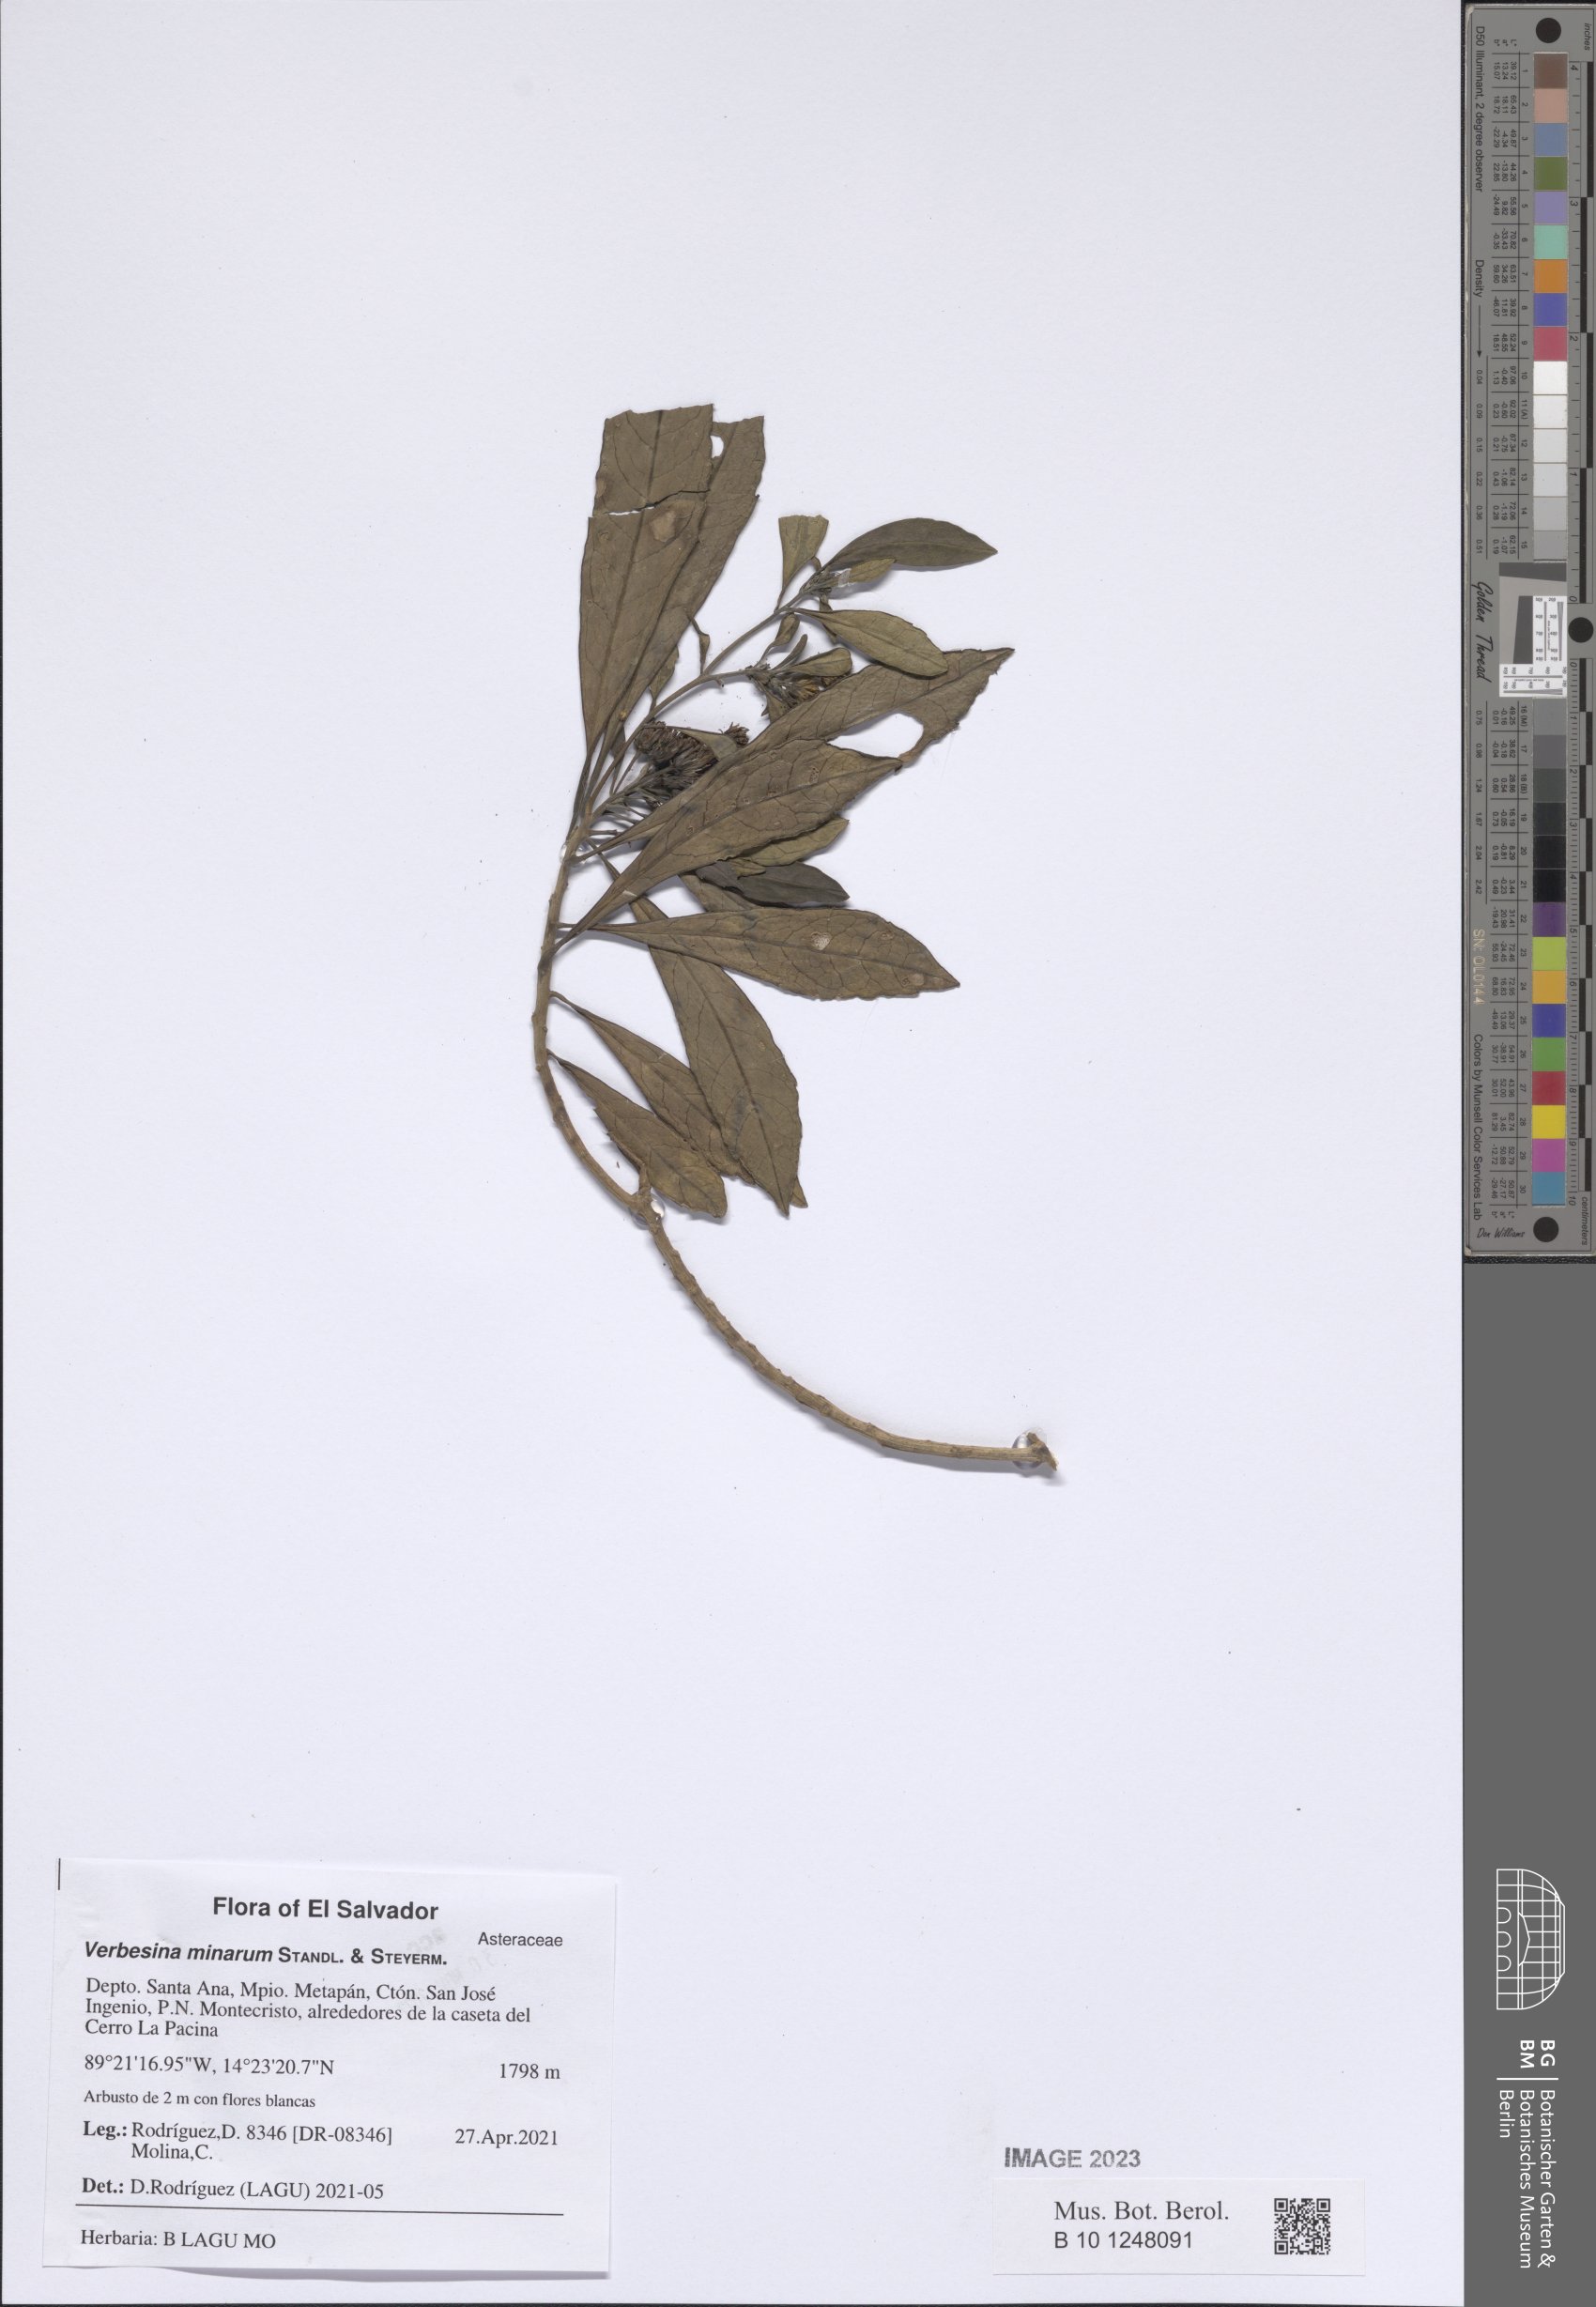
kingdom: Plantae
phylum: Tracheophyta
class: Magnoliopsida
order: Asterales
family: Asteraceae
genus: Verbesina
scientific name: Verbesina minarum
